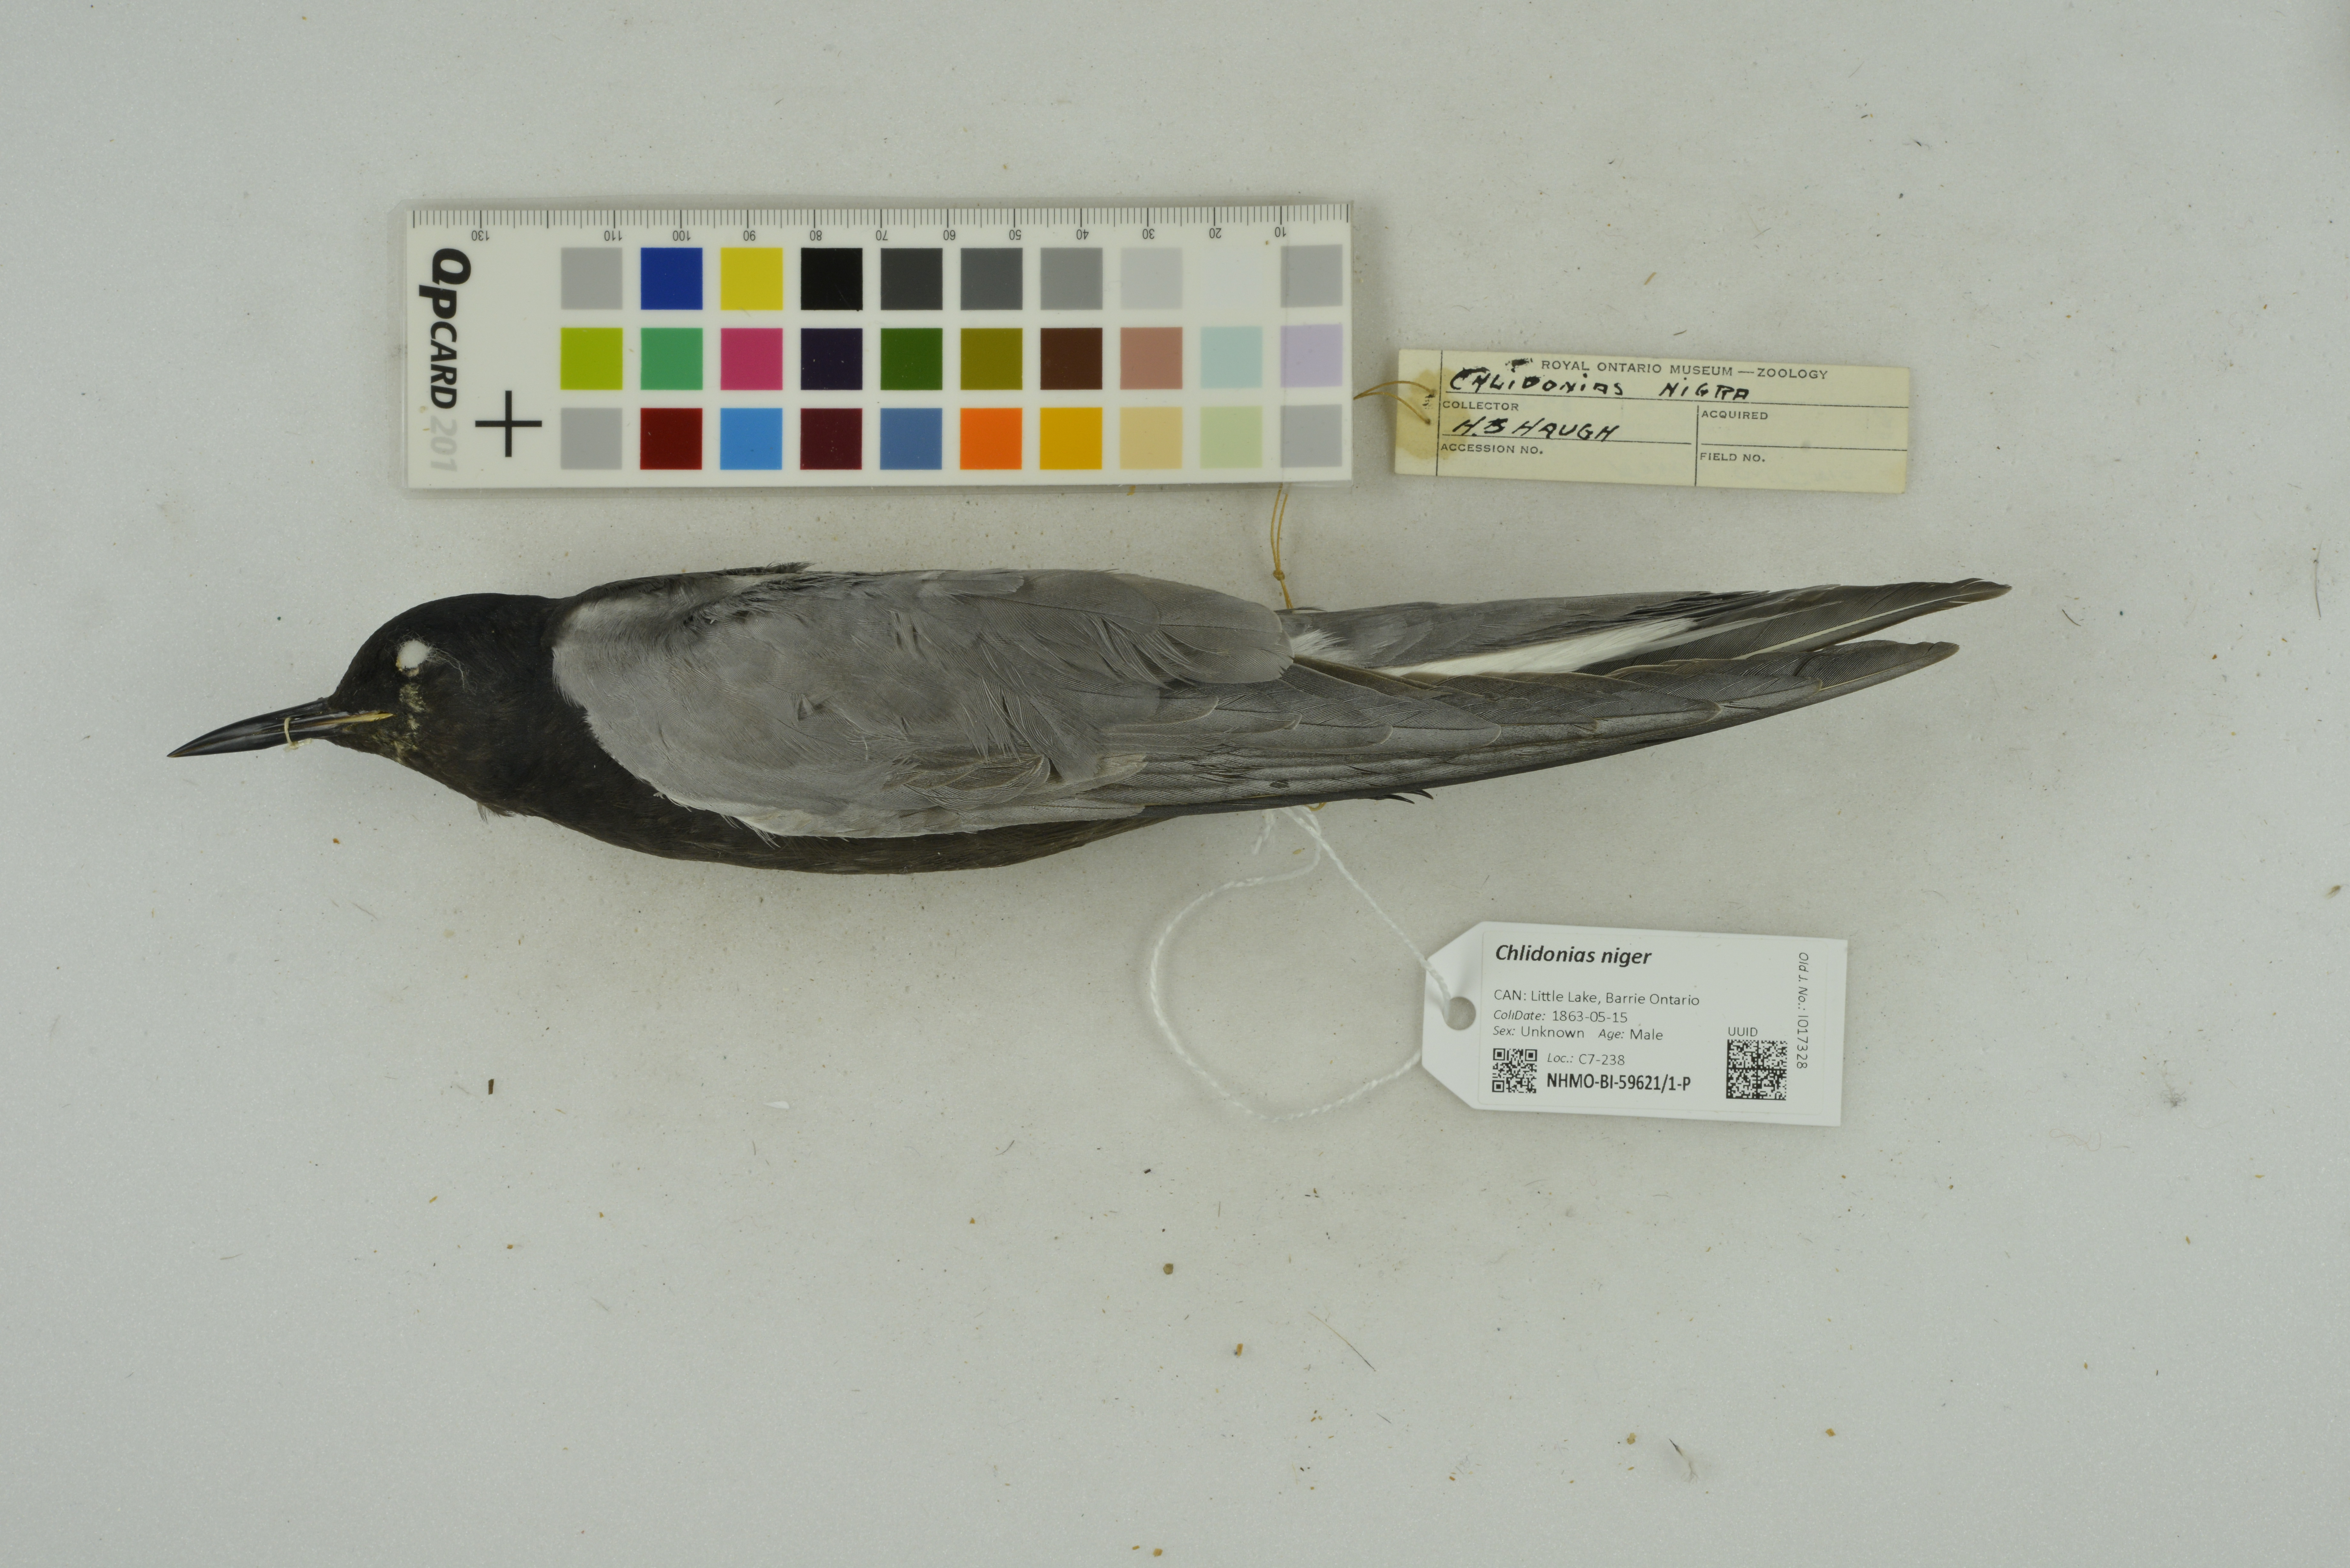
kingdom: Animalia
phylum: Chordata
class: Aves
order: Charadriiformes
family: Laridae
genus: Chlidonias
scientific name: Chlidonias niger
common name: Black tern
